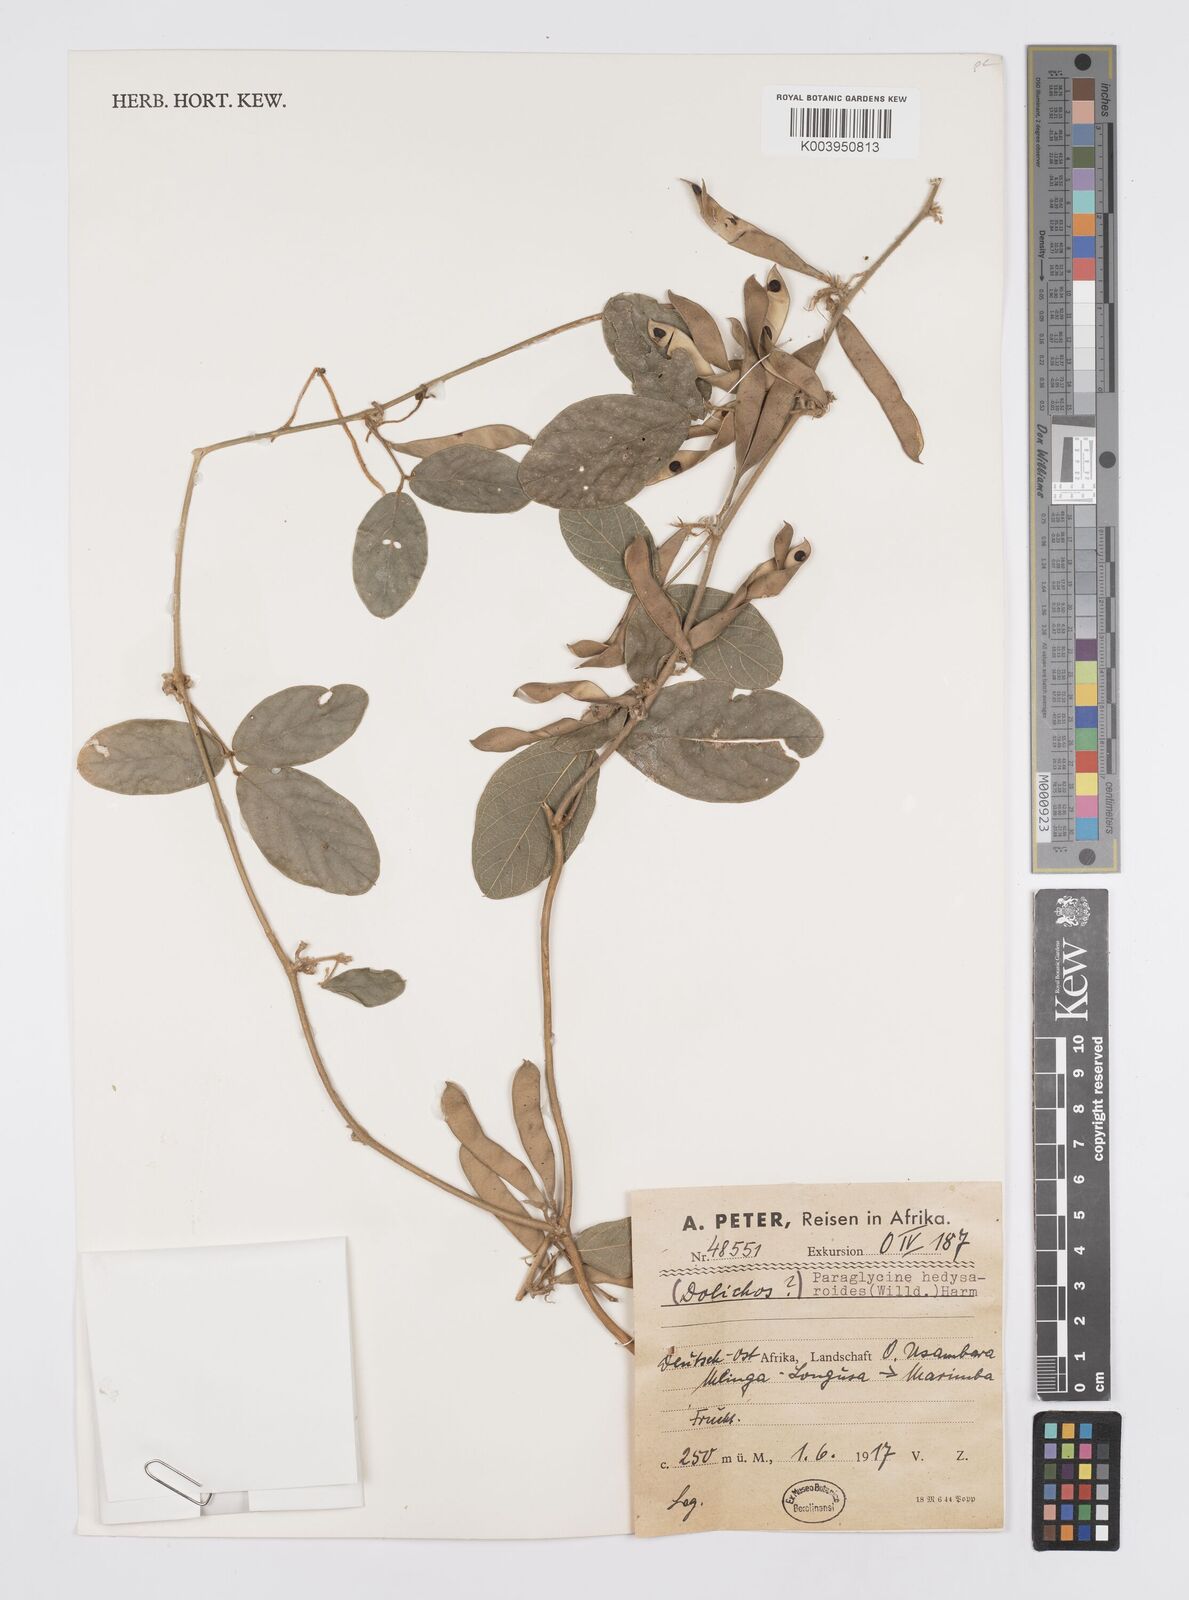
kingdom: Plantae
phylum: Tracheophyta
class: Magnoliopsida
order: Fabales
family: Fabaceae
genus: Ophrestia
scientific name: Ophrestia hedysaroides
